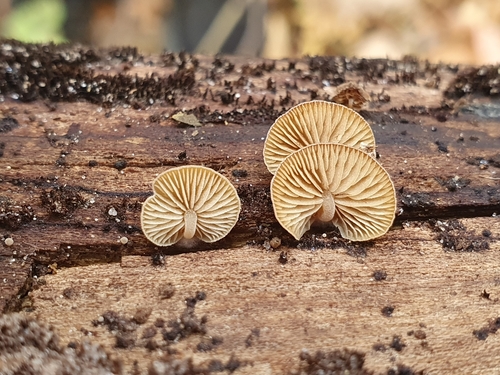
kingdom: Fungi
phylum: Basidiomycota
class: Agaricomycetes
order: Agaricales
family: Crepidotaceae
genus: Simocybe
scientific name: Simocybe centunculus
